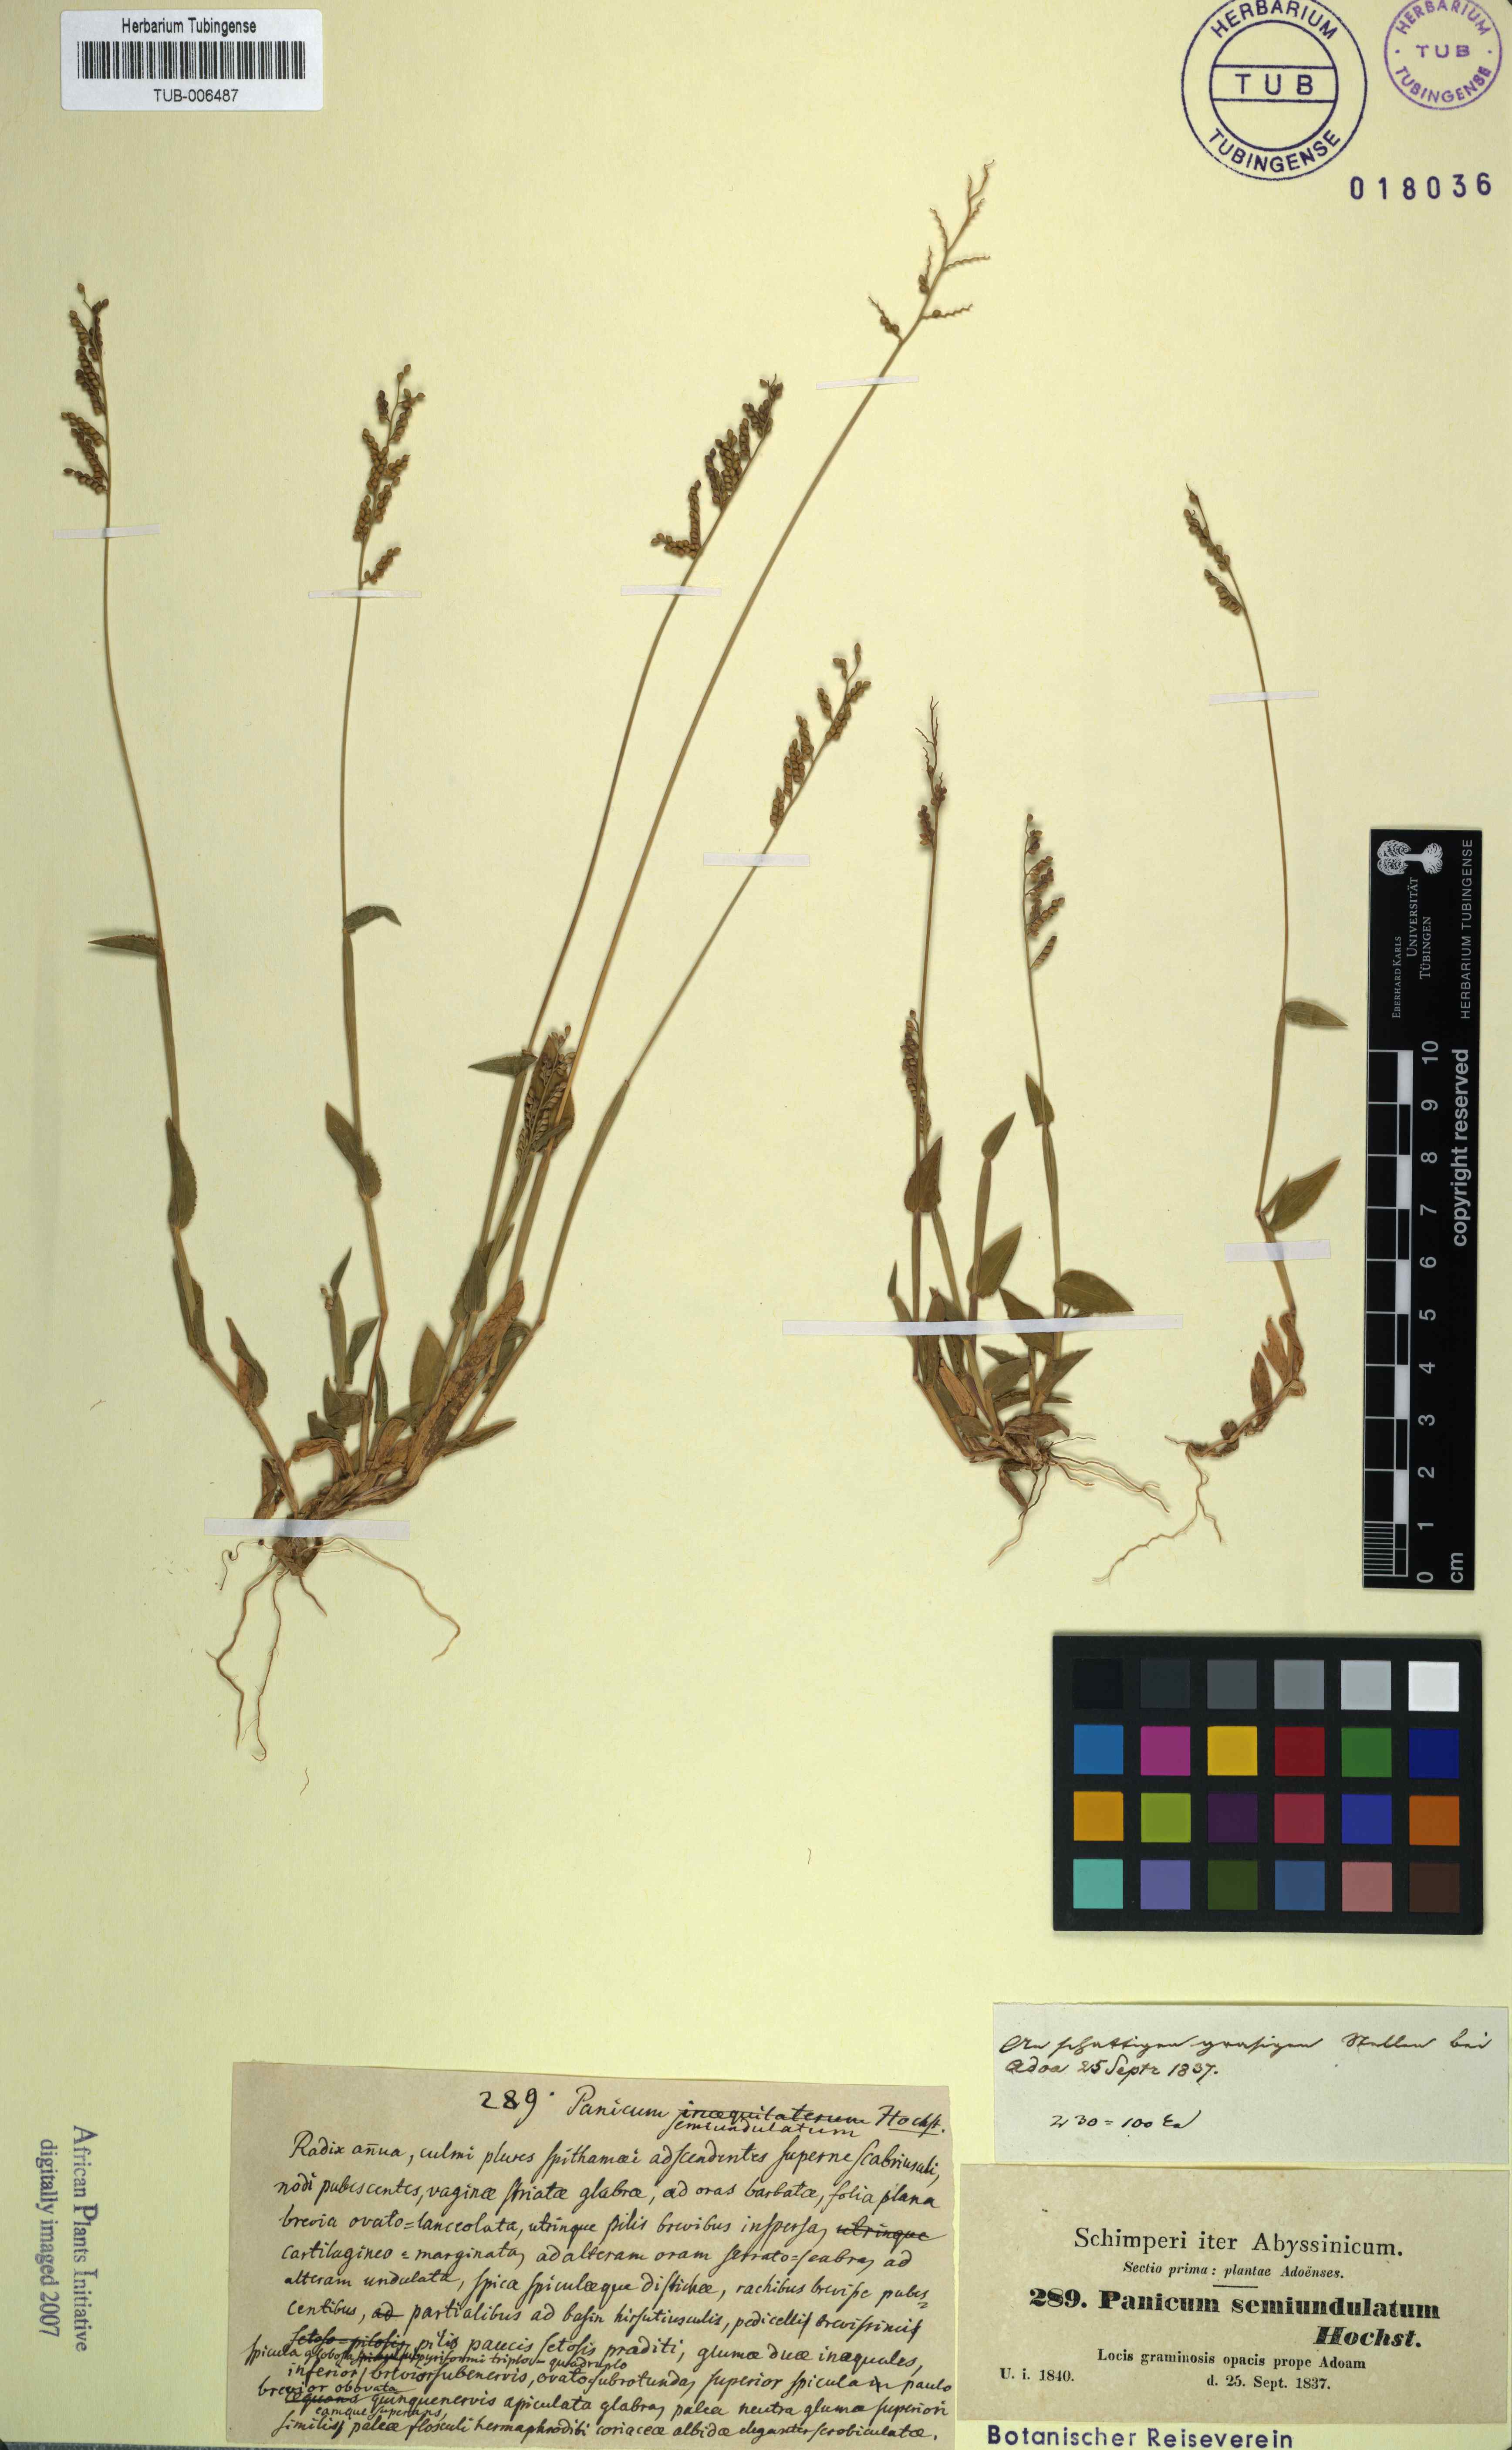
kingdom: Plantae
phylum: Tracheophyta
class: Liliopsida
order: Poales
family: Poaceae
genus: Panicum
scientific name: Panicum semiundulatum
